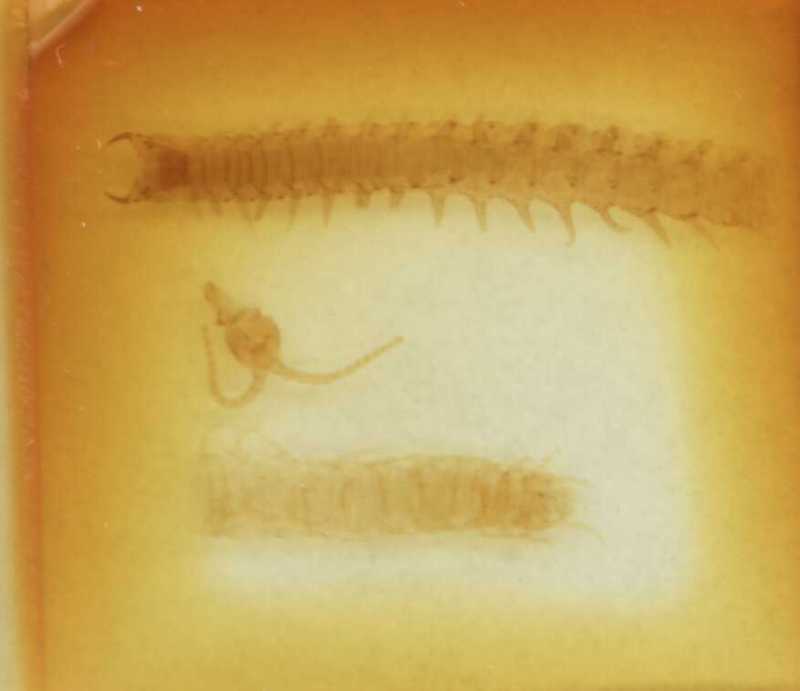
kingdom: Animalia
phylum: Arthropoda
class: Chilopoda
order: Geophilomorpha
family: Geophilidae
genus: Bithyniphilus
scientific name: Bithyniphilus bosporanus
